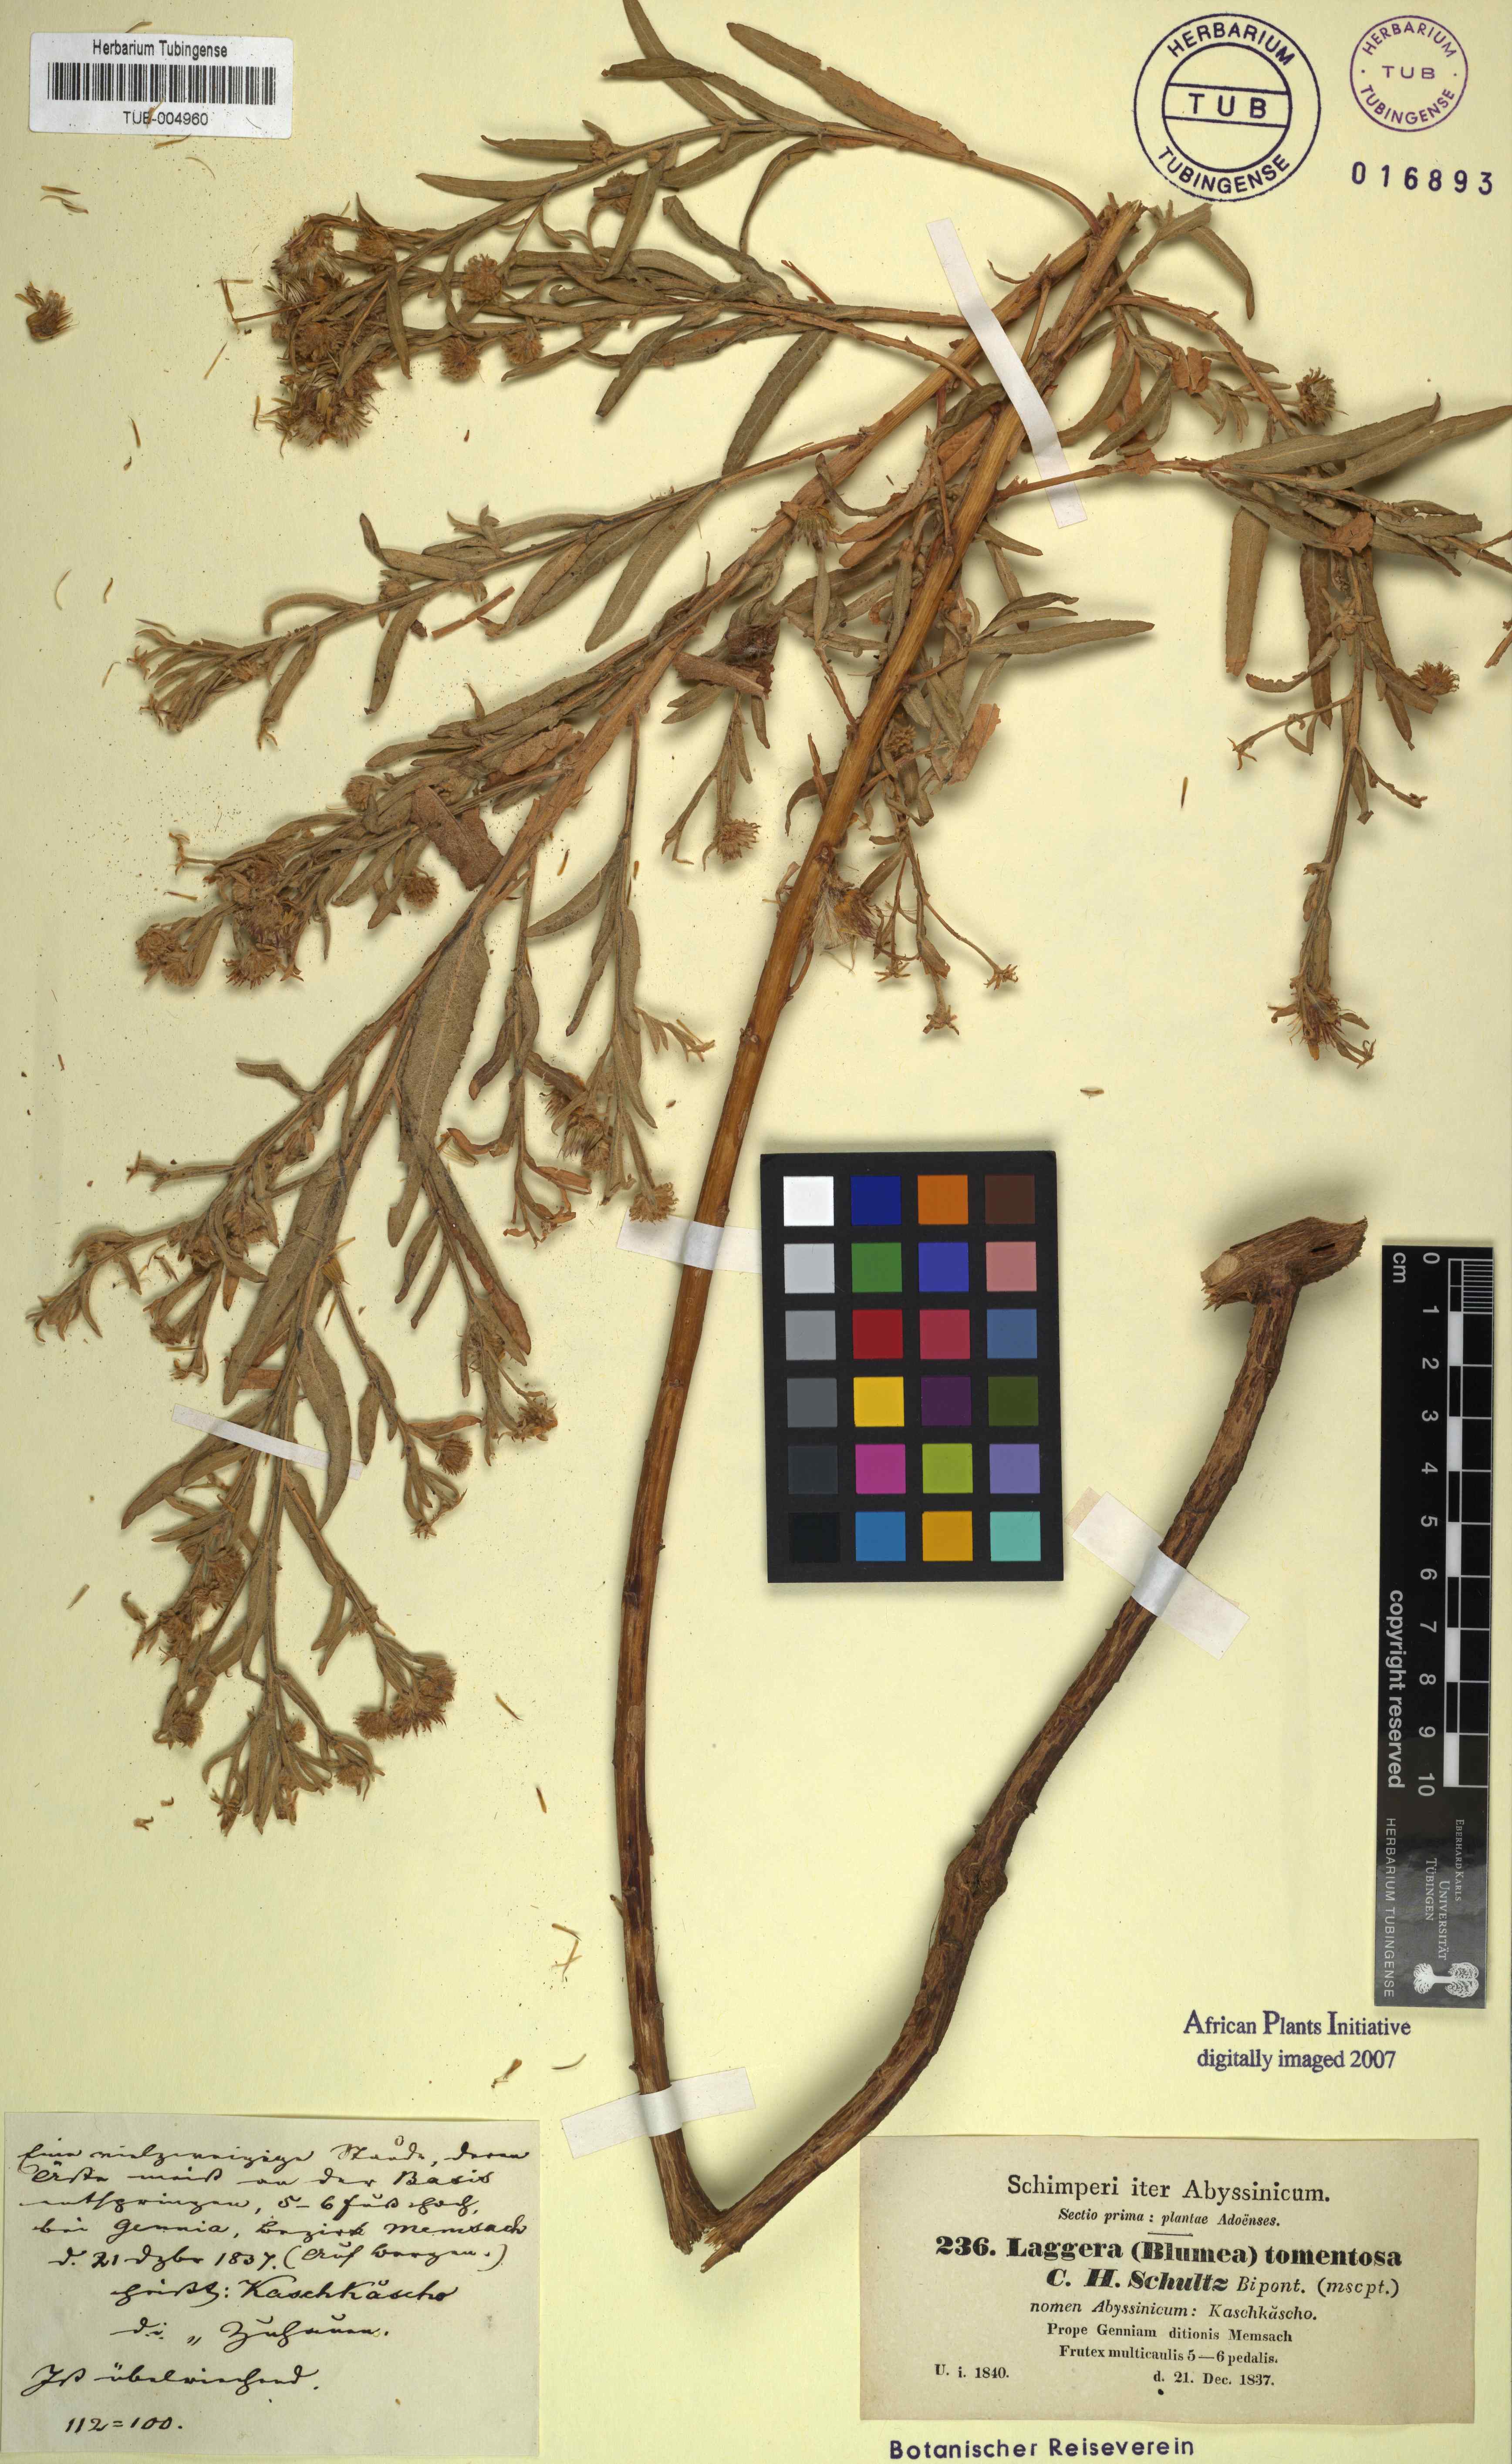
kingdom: Plantae
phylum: Tracheophyta
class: Magnoliopsida
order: Asterales
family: Asteraceae
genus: Laggera
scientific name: Laggera tomentosa
